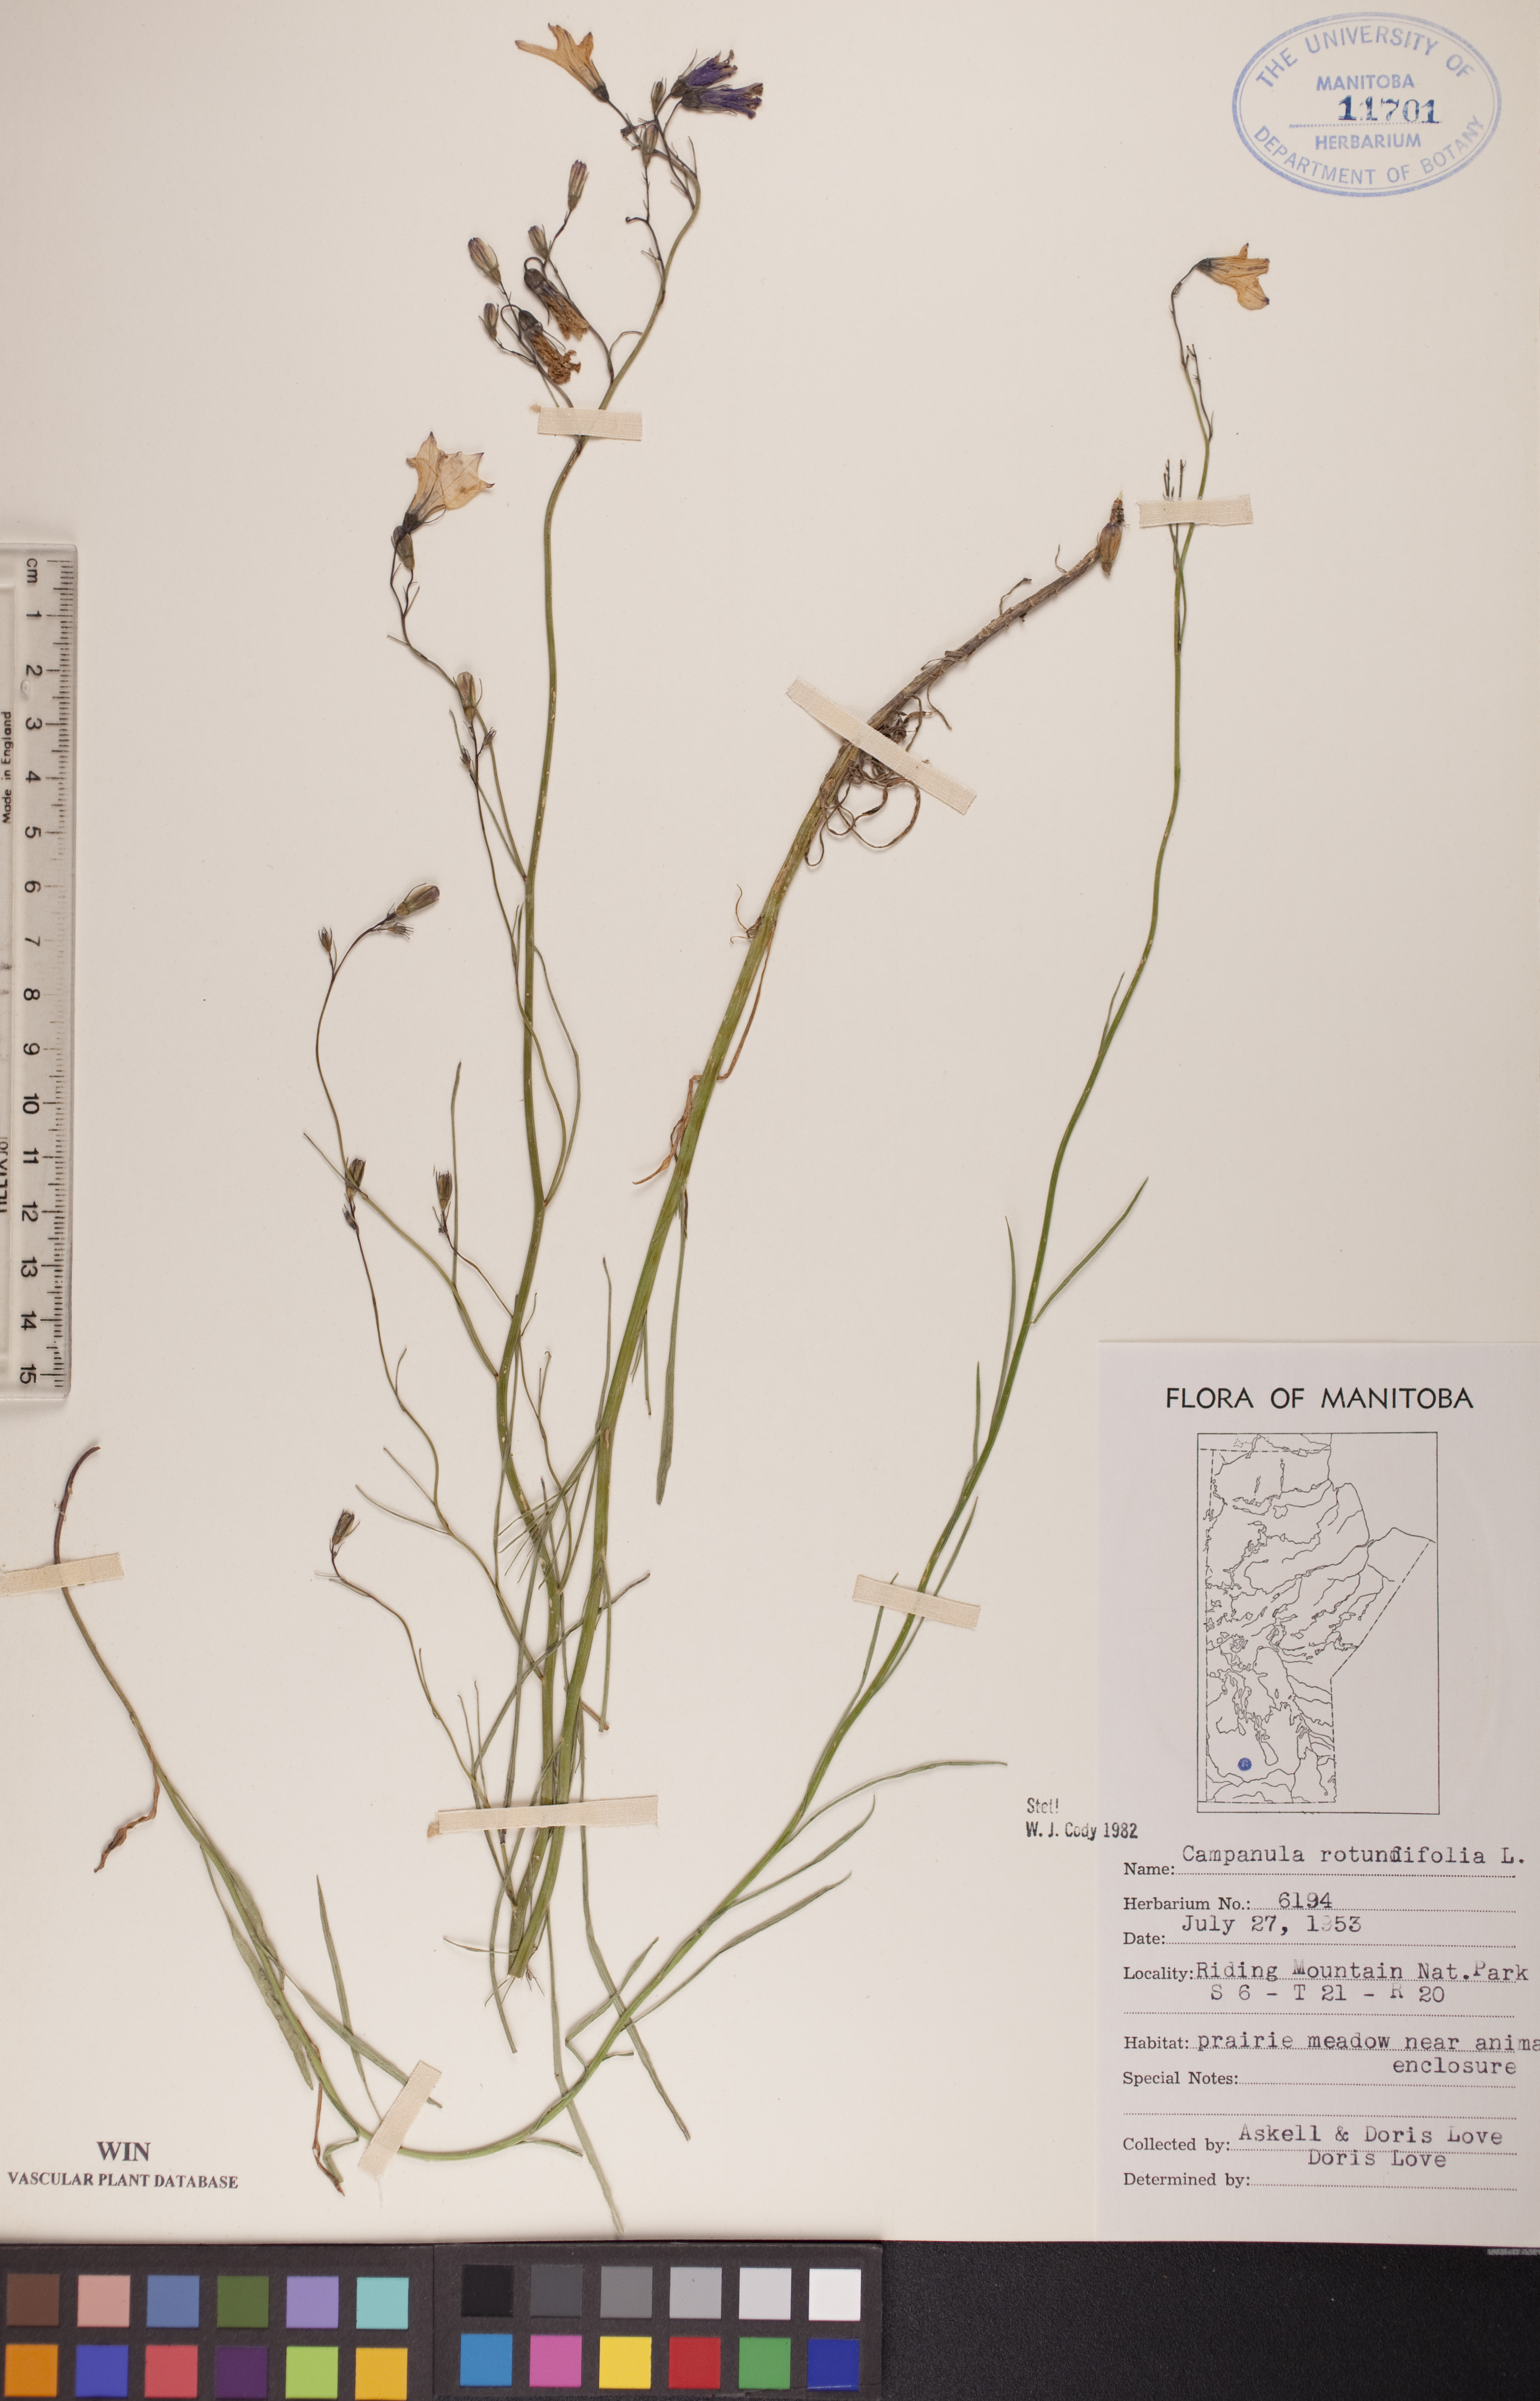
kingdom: Plantae
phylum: Tracheophyta
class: Magnoliopsida
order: Asterales
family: Campanulaceae
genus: Campanula
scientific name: Campanula rotundifolia
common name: Harebell
